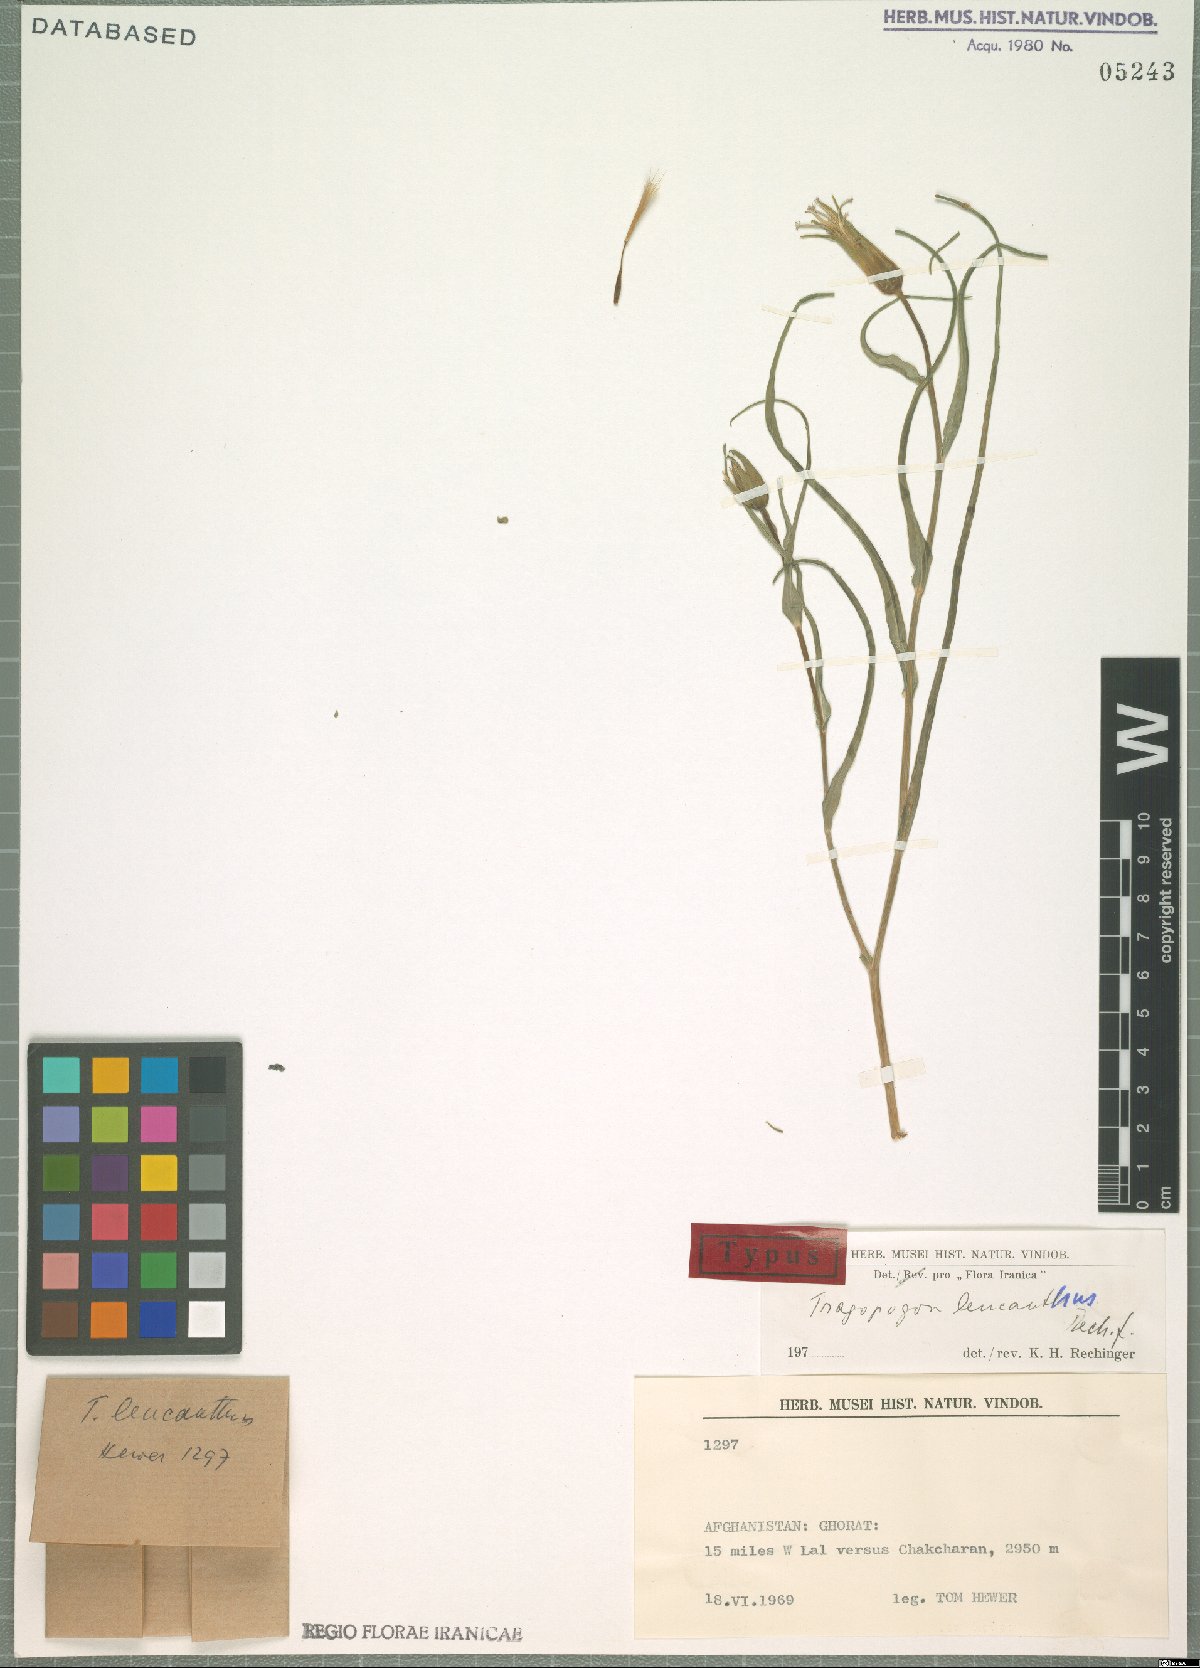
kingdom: Plantae
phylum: Tracheophyta
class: Magnoliopsida
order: Asterales
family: Asteraceae
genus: Tragopogon
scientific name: Tragopogon leucanthus
